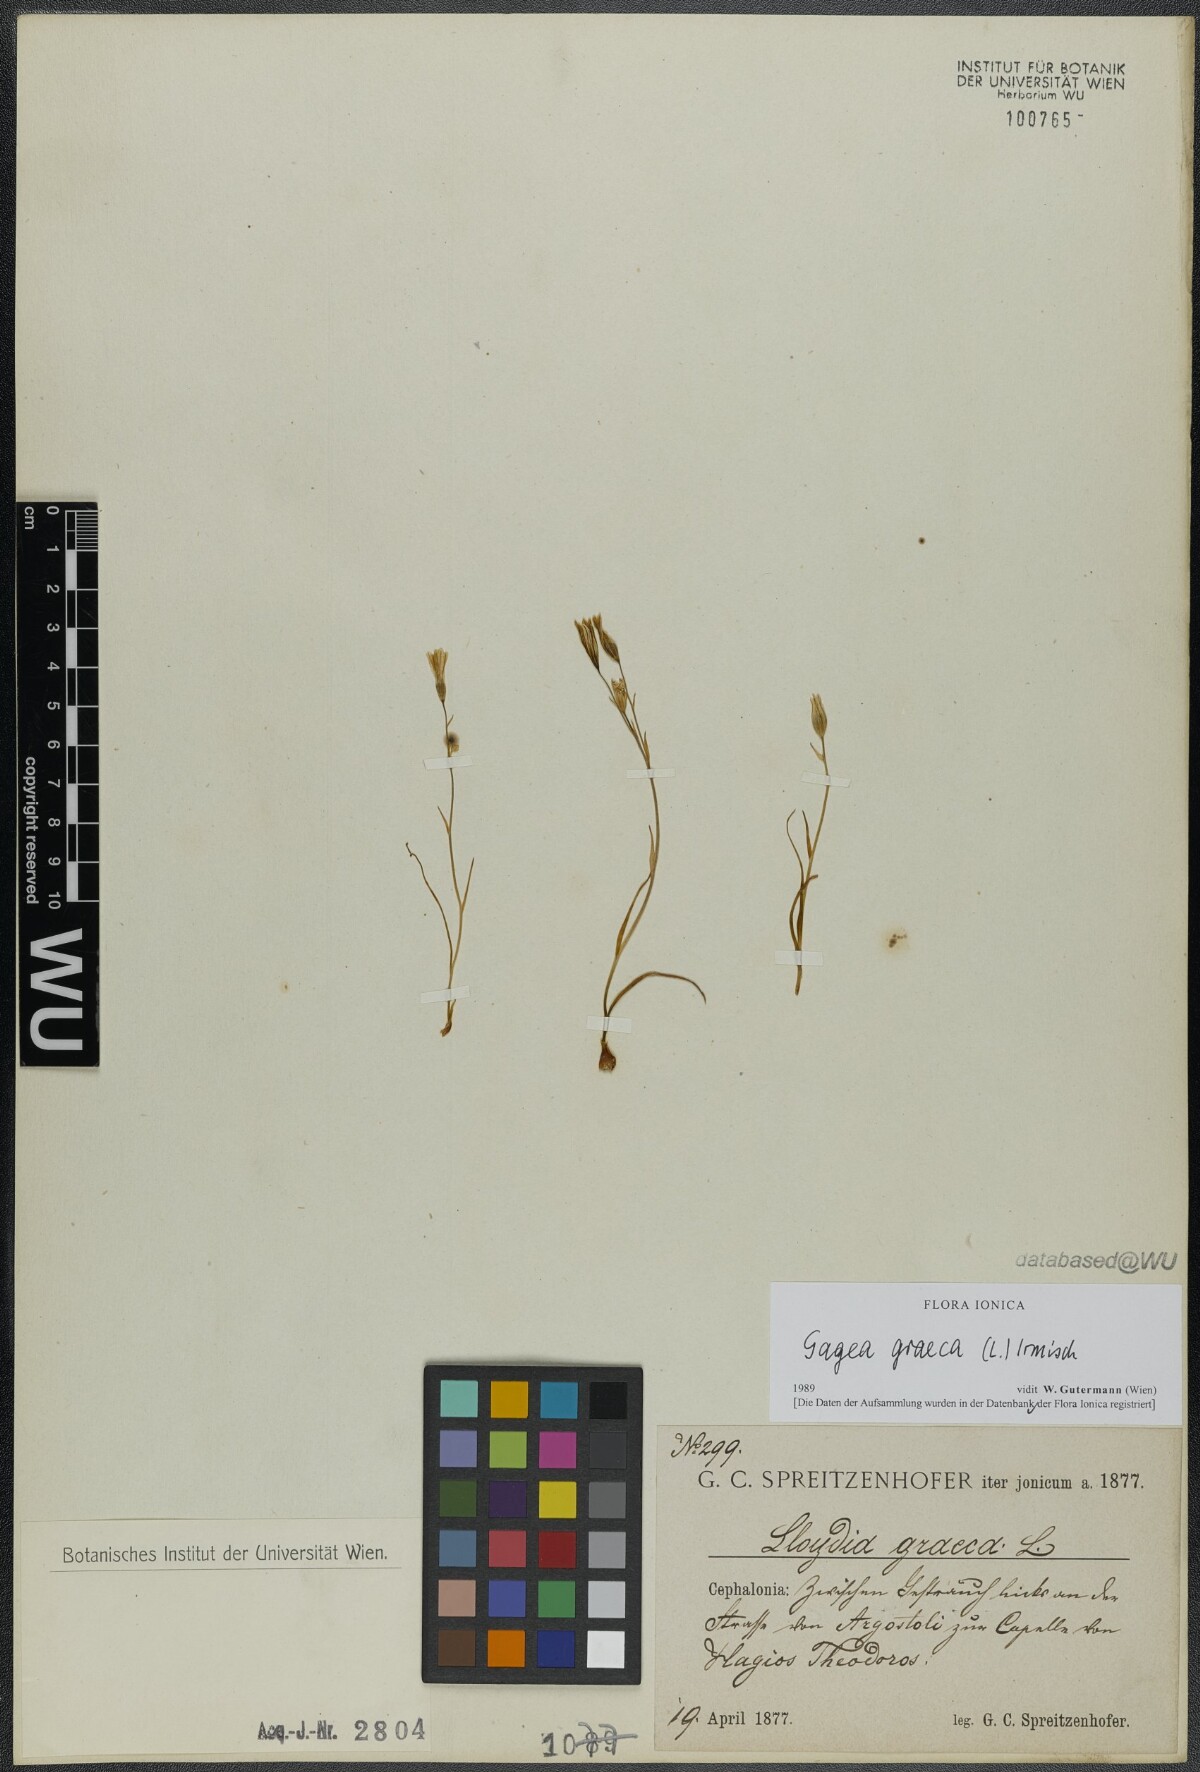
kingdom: Plantae
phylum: Tracheophyta
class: Liliopsida
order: Liliales
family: Liliaceae
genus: Gagea
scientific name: Gagea graeca
